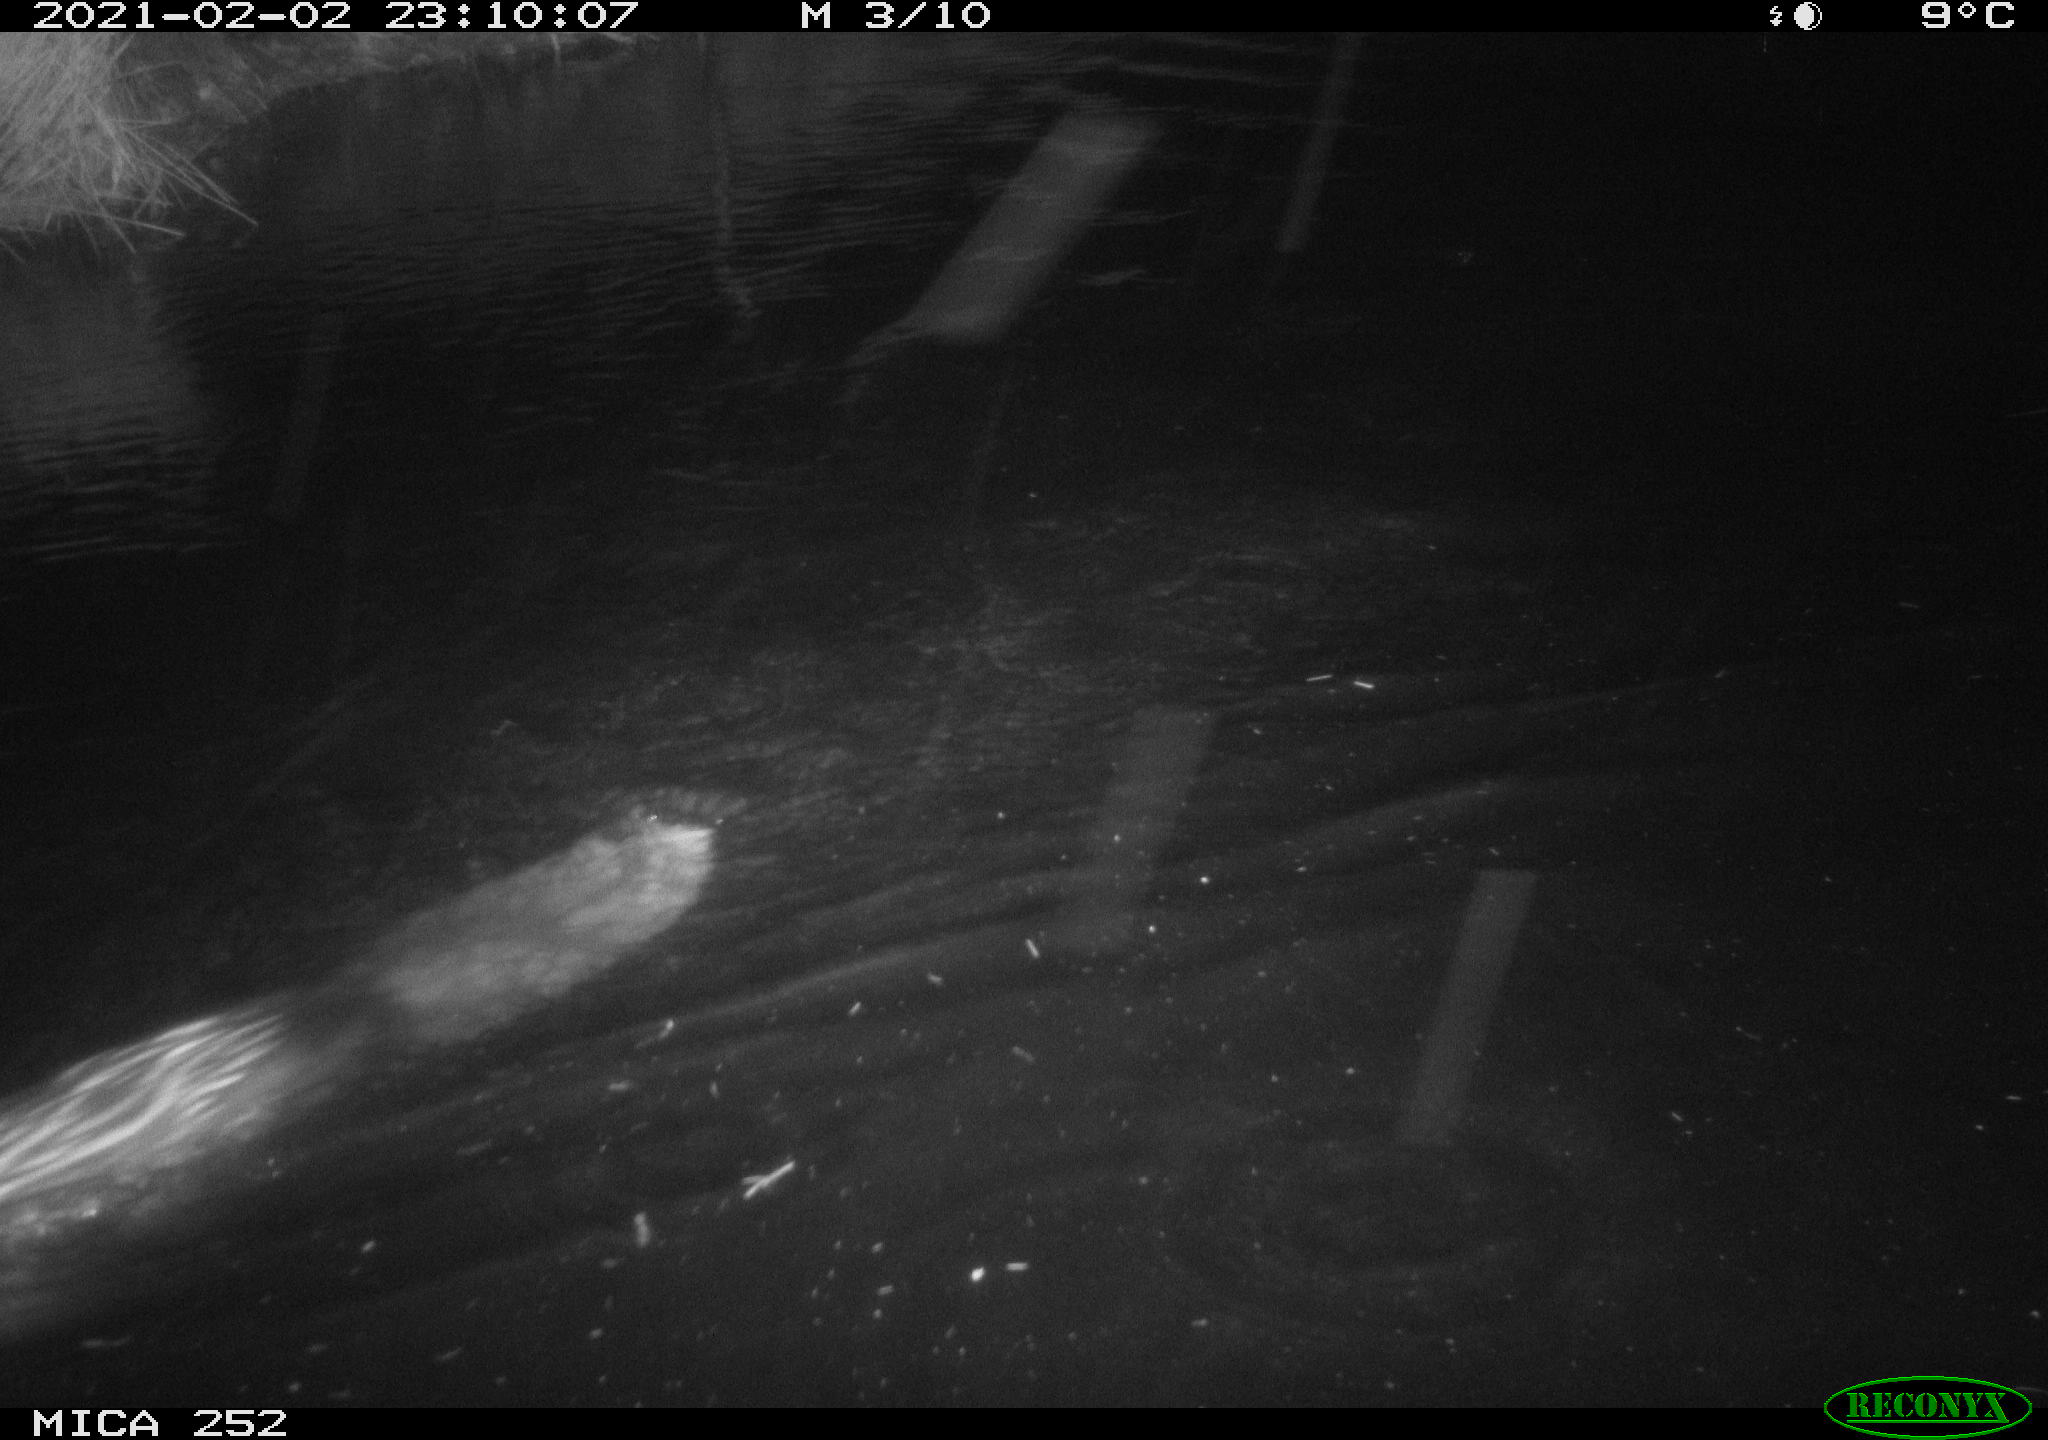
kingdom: Animalia
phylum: Chordata
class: Mammalia
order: Rodentia
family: Castoridae
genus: Castor
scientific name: Castor fiber
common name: Eurasian beaver
